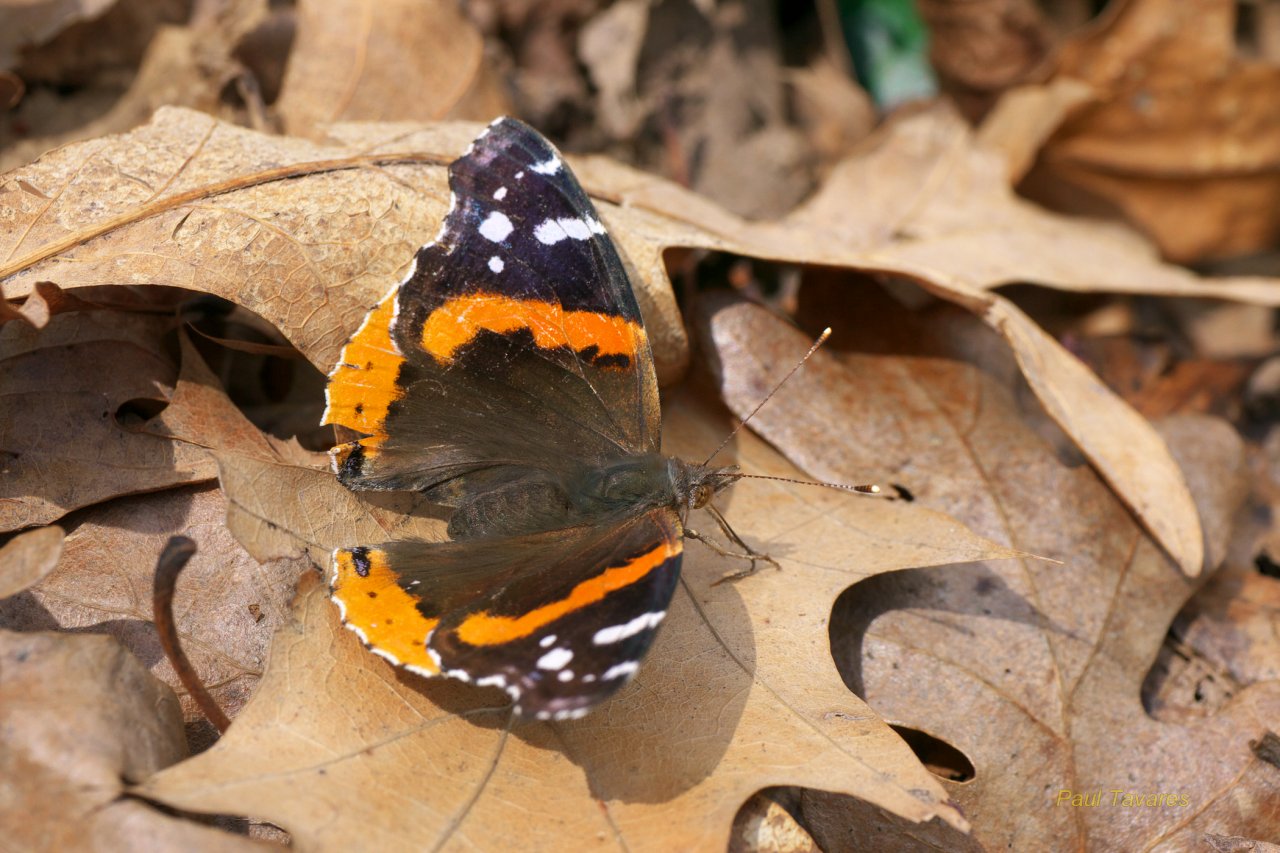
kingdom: Animalia
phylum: Arthropoda
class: Insecta
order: Lepidoptera
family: Nymphalidae
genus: Vanessa
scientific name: Vanessa atalanta
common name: Red Admiral
